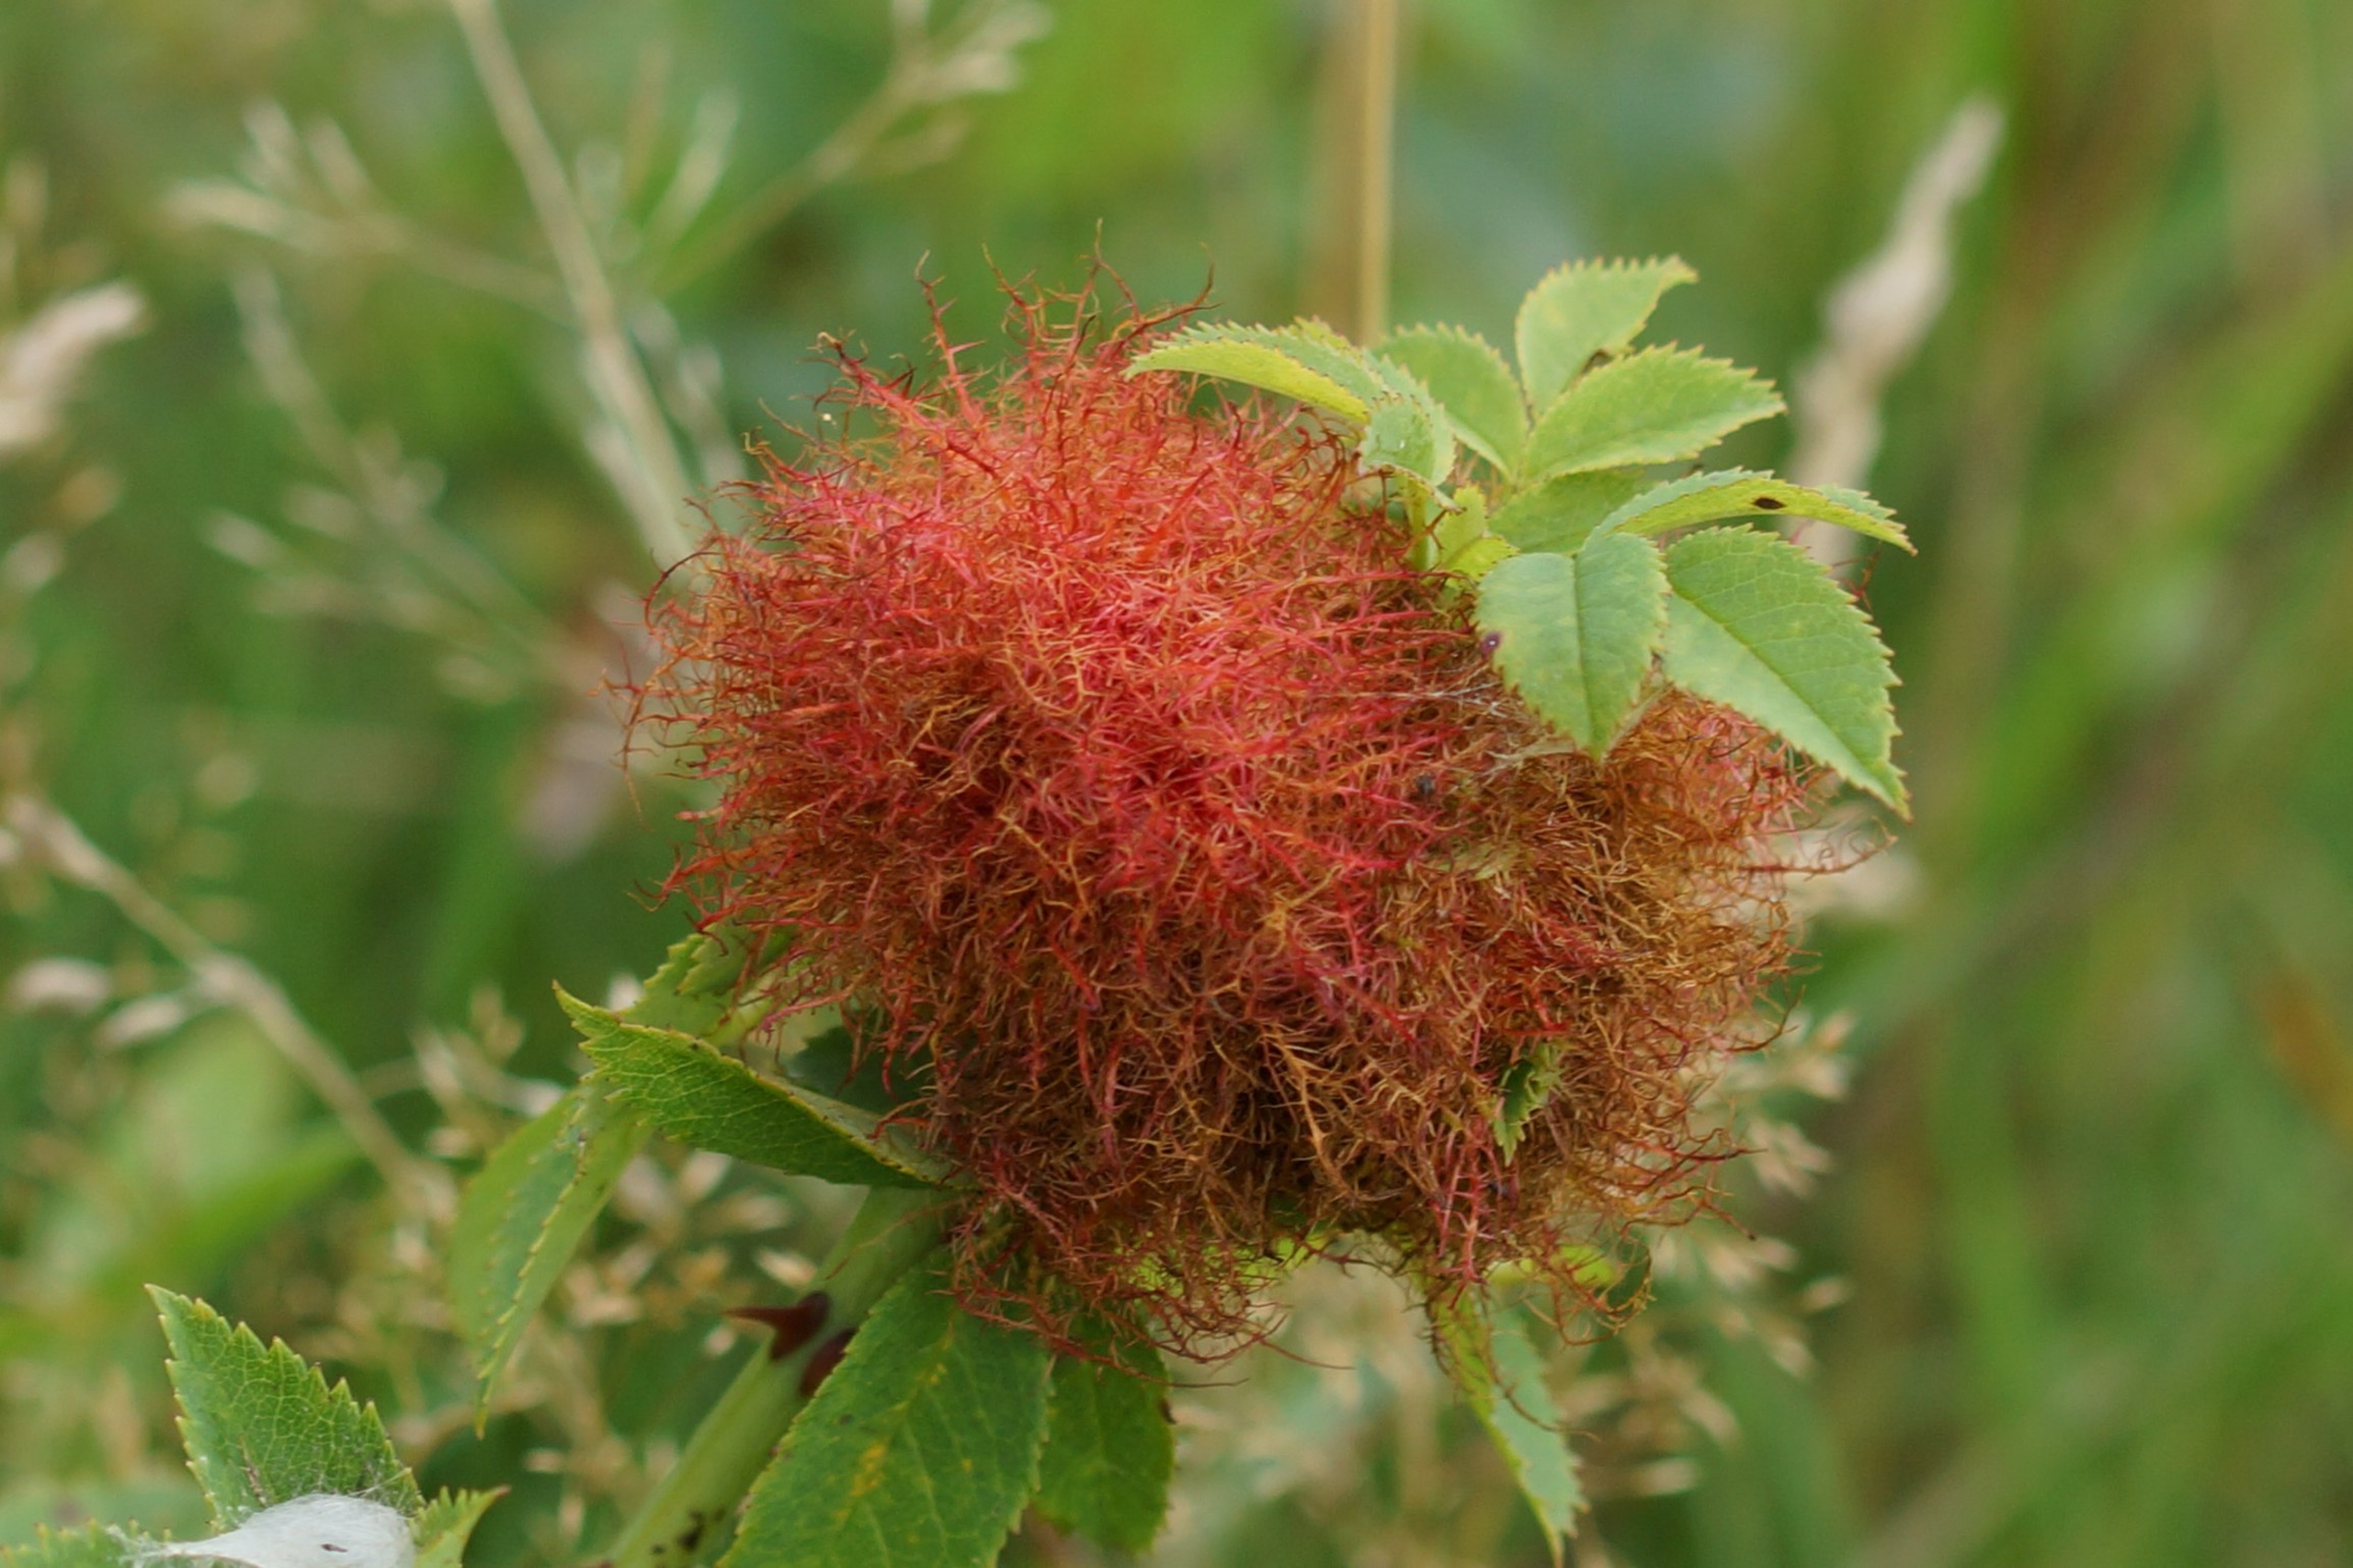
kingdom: Animalia
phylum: Arthropoda
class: Insecta
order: Hymenoptera
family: Cynipidae
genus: Diplolepis
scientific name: Diplolepis rosae
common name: Bedeguargalhveps
